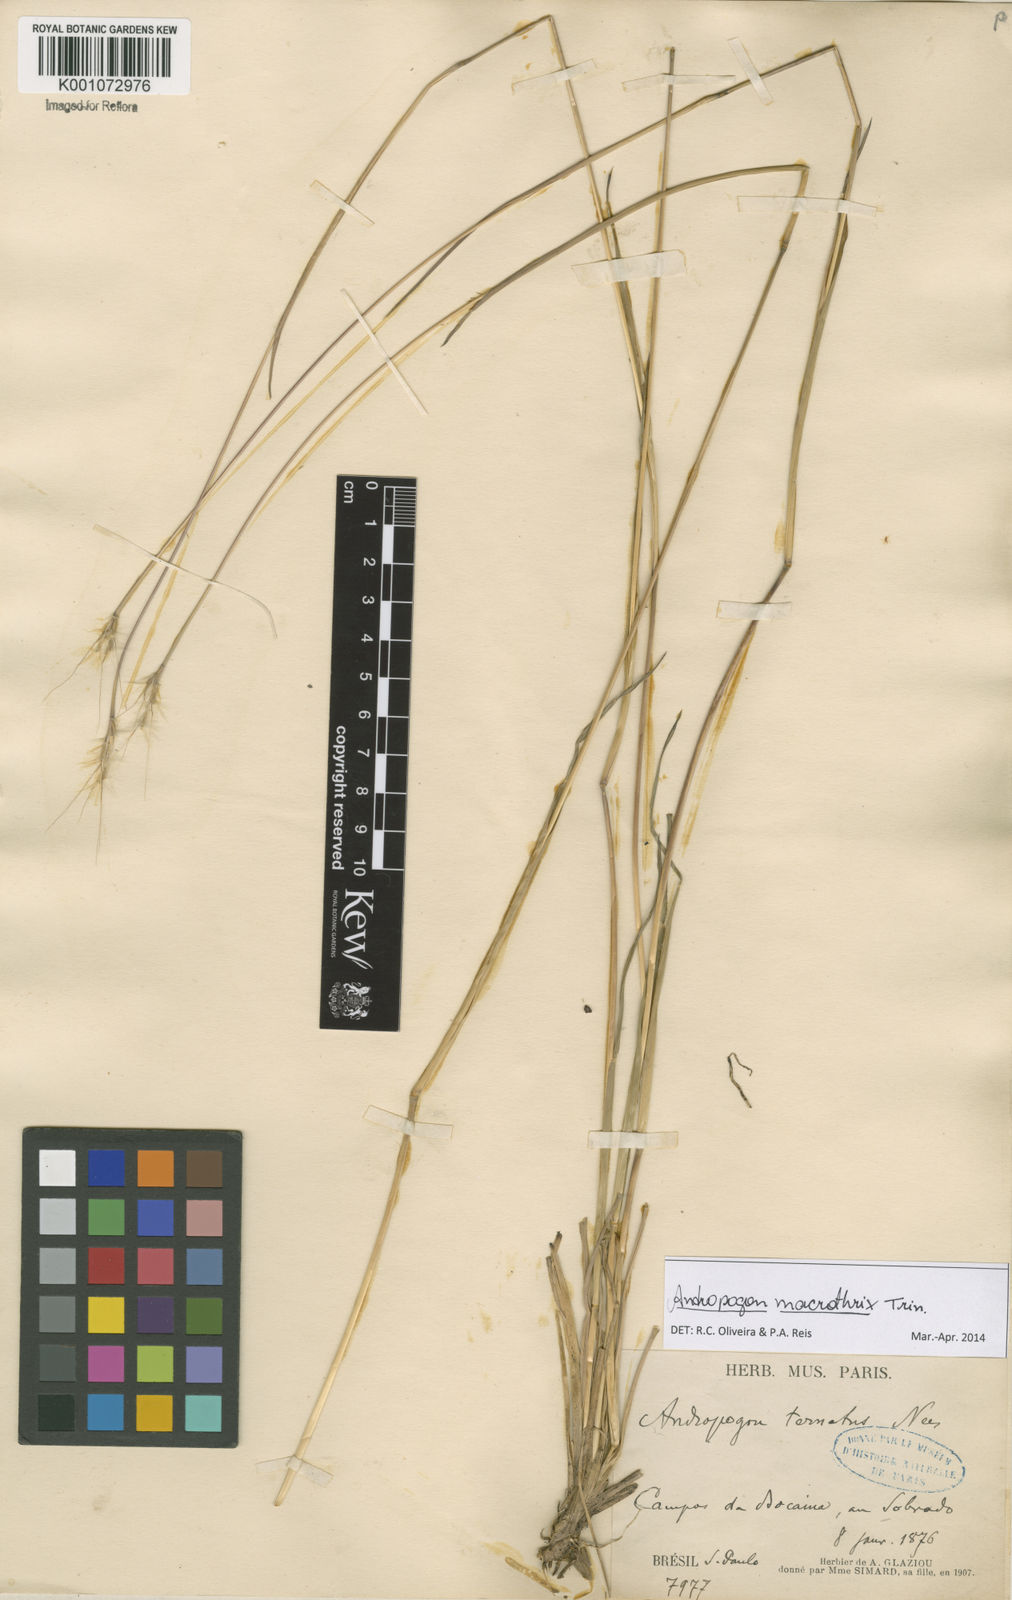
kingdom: Plantae
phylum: Tracheophyta
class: Liliopsida
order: Poales
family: Poaceae
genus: Andropogon
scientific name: Andropogon macrothrix
